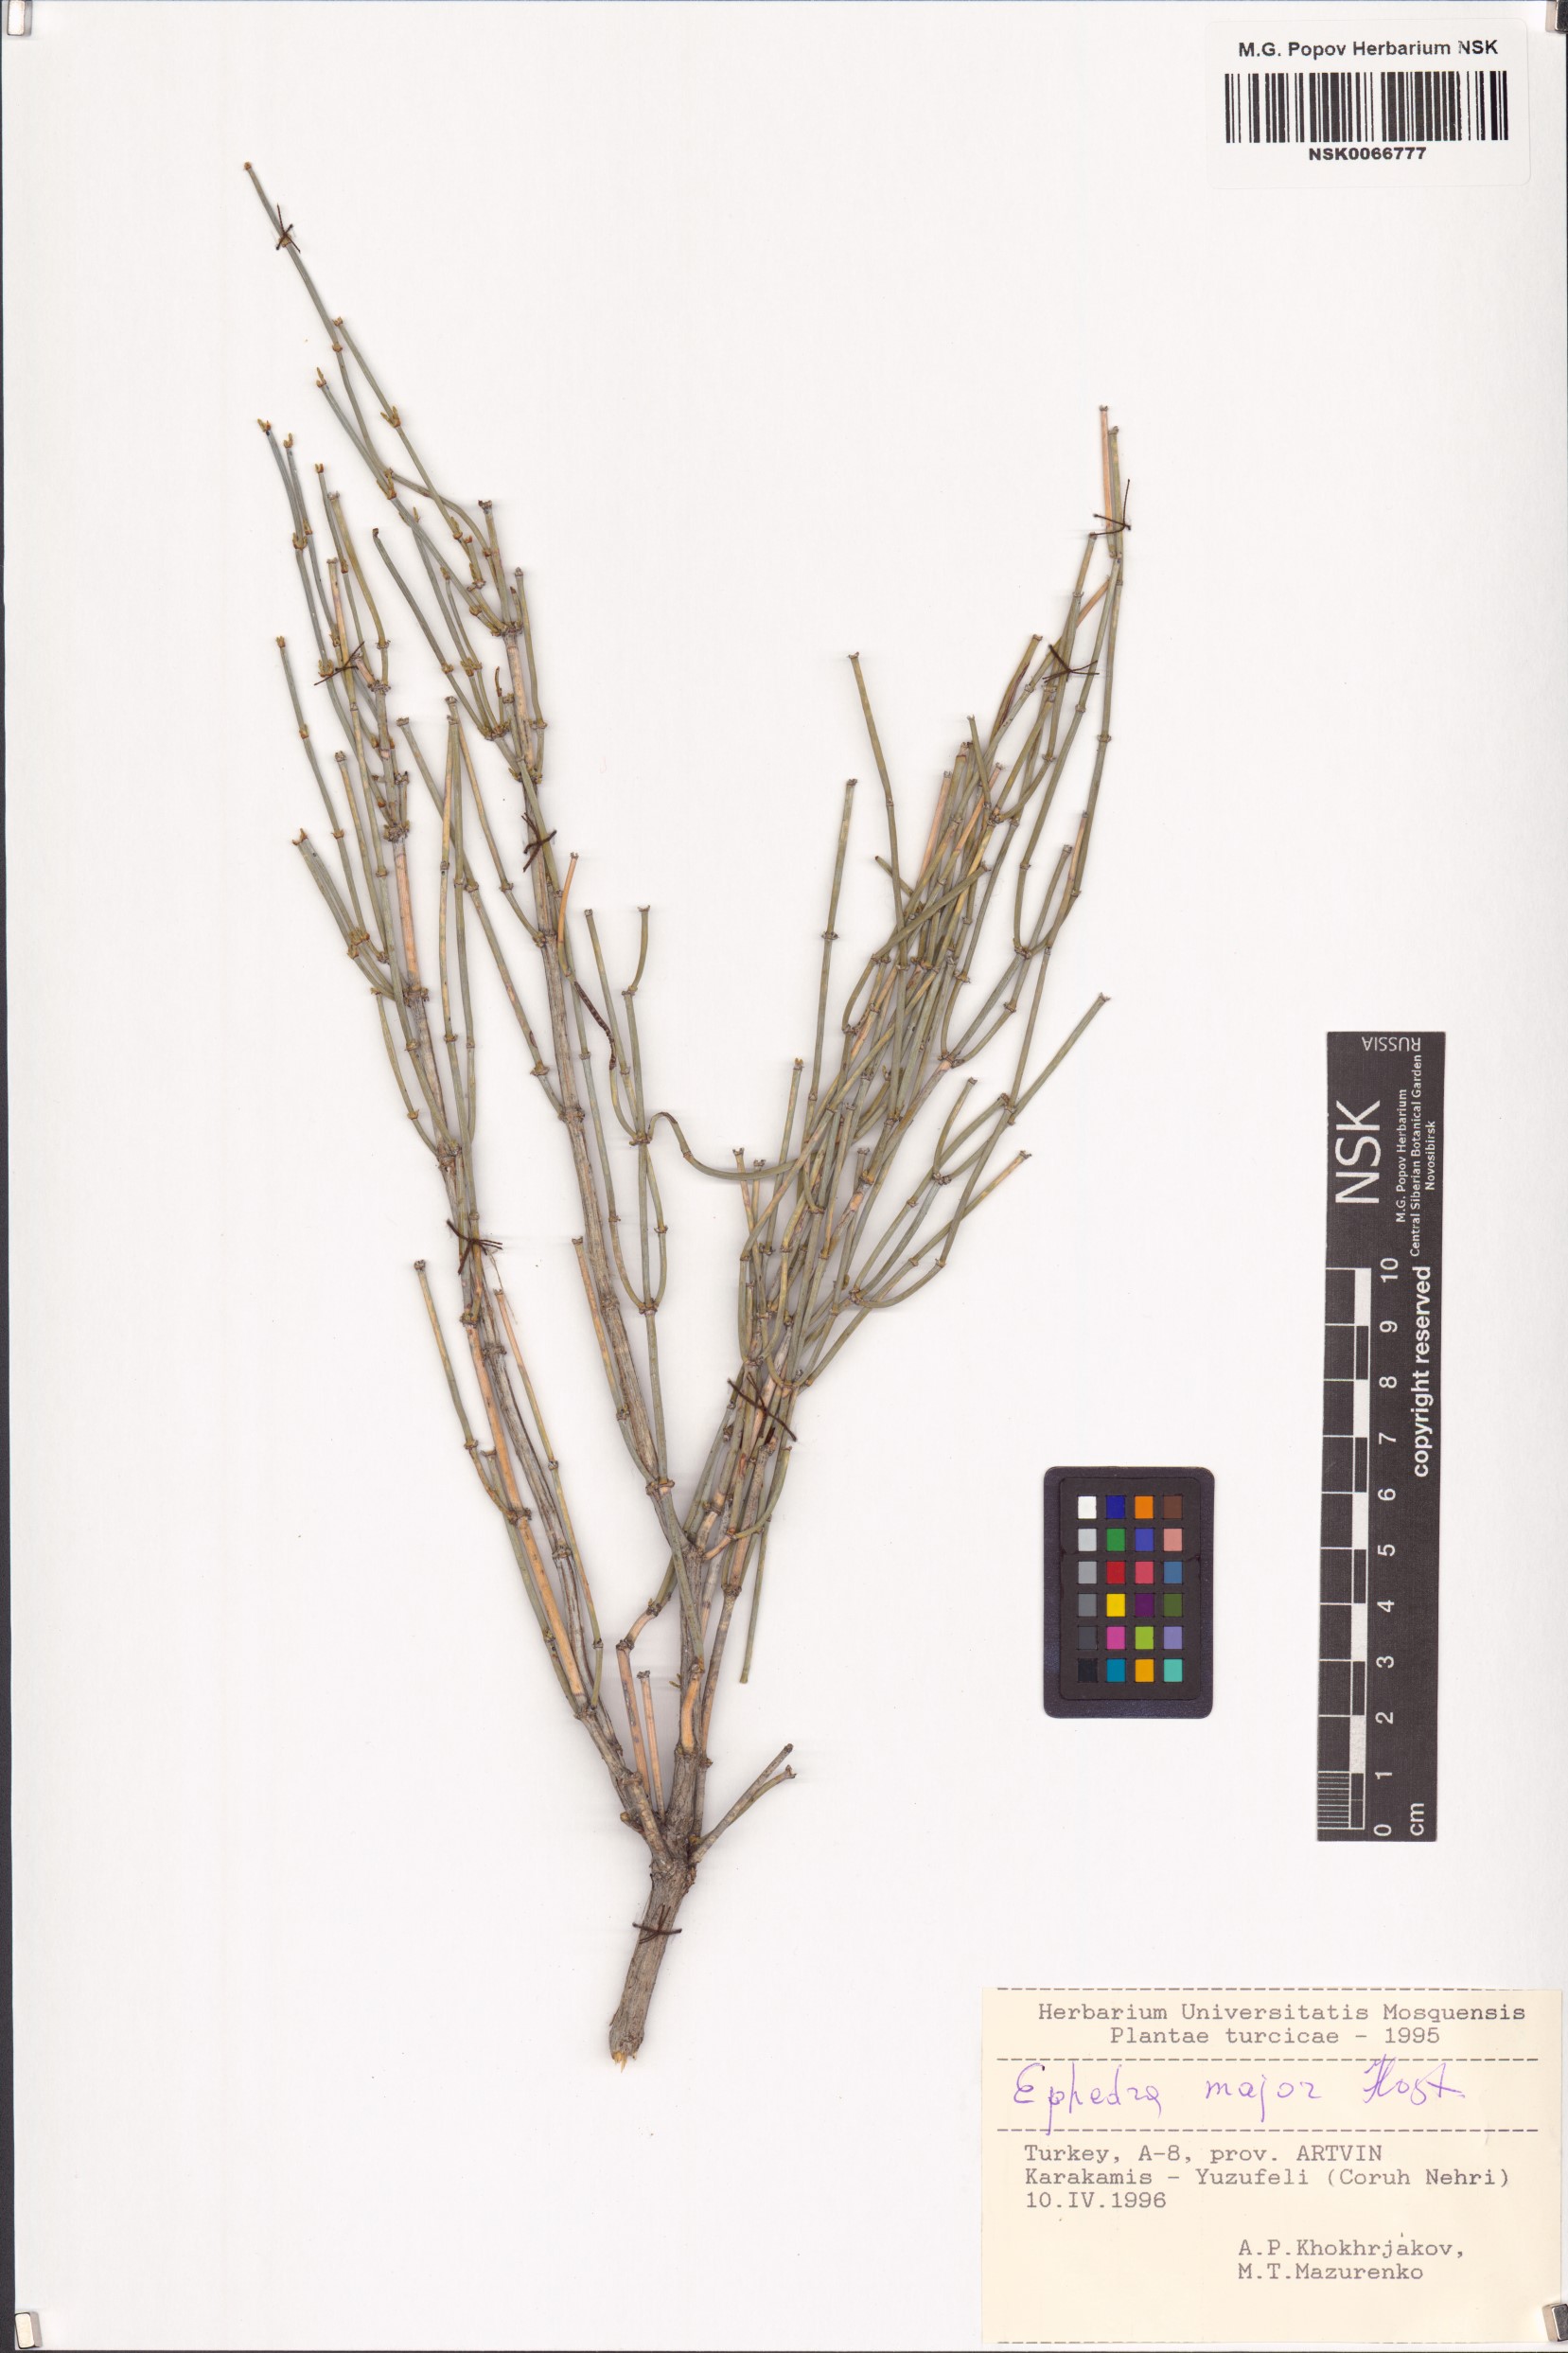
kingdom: Plantae
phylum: Tracheophyta
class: Gnetopsida
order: Ephedrales
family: Ephedraceae
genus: Ephedra
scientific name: Ephedra foeminea
